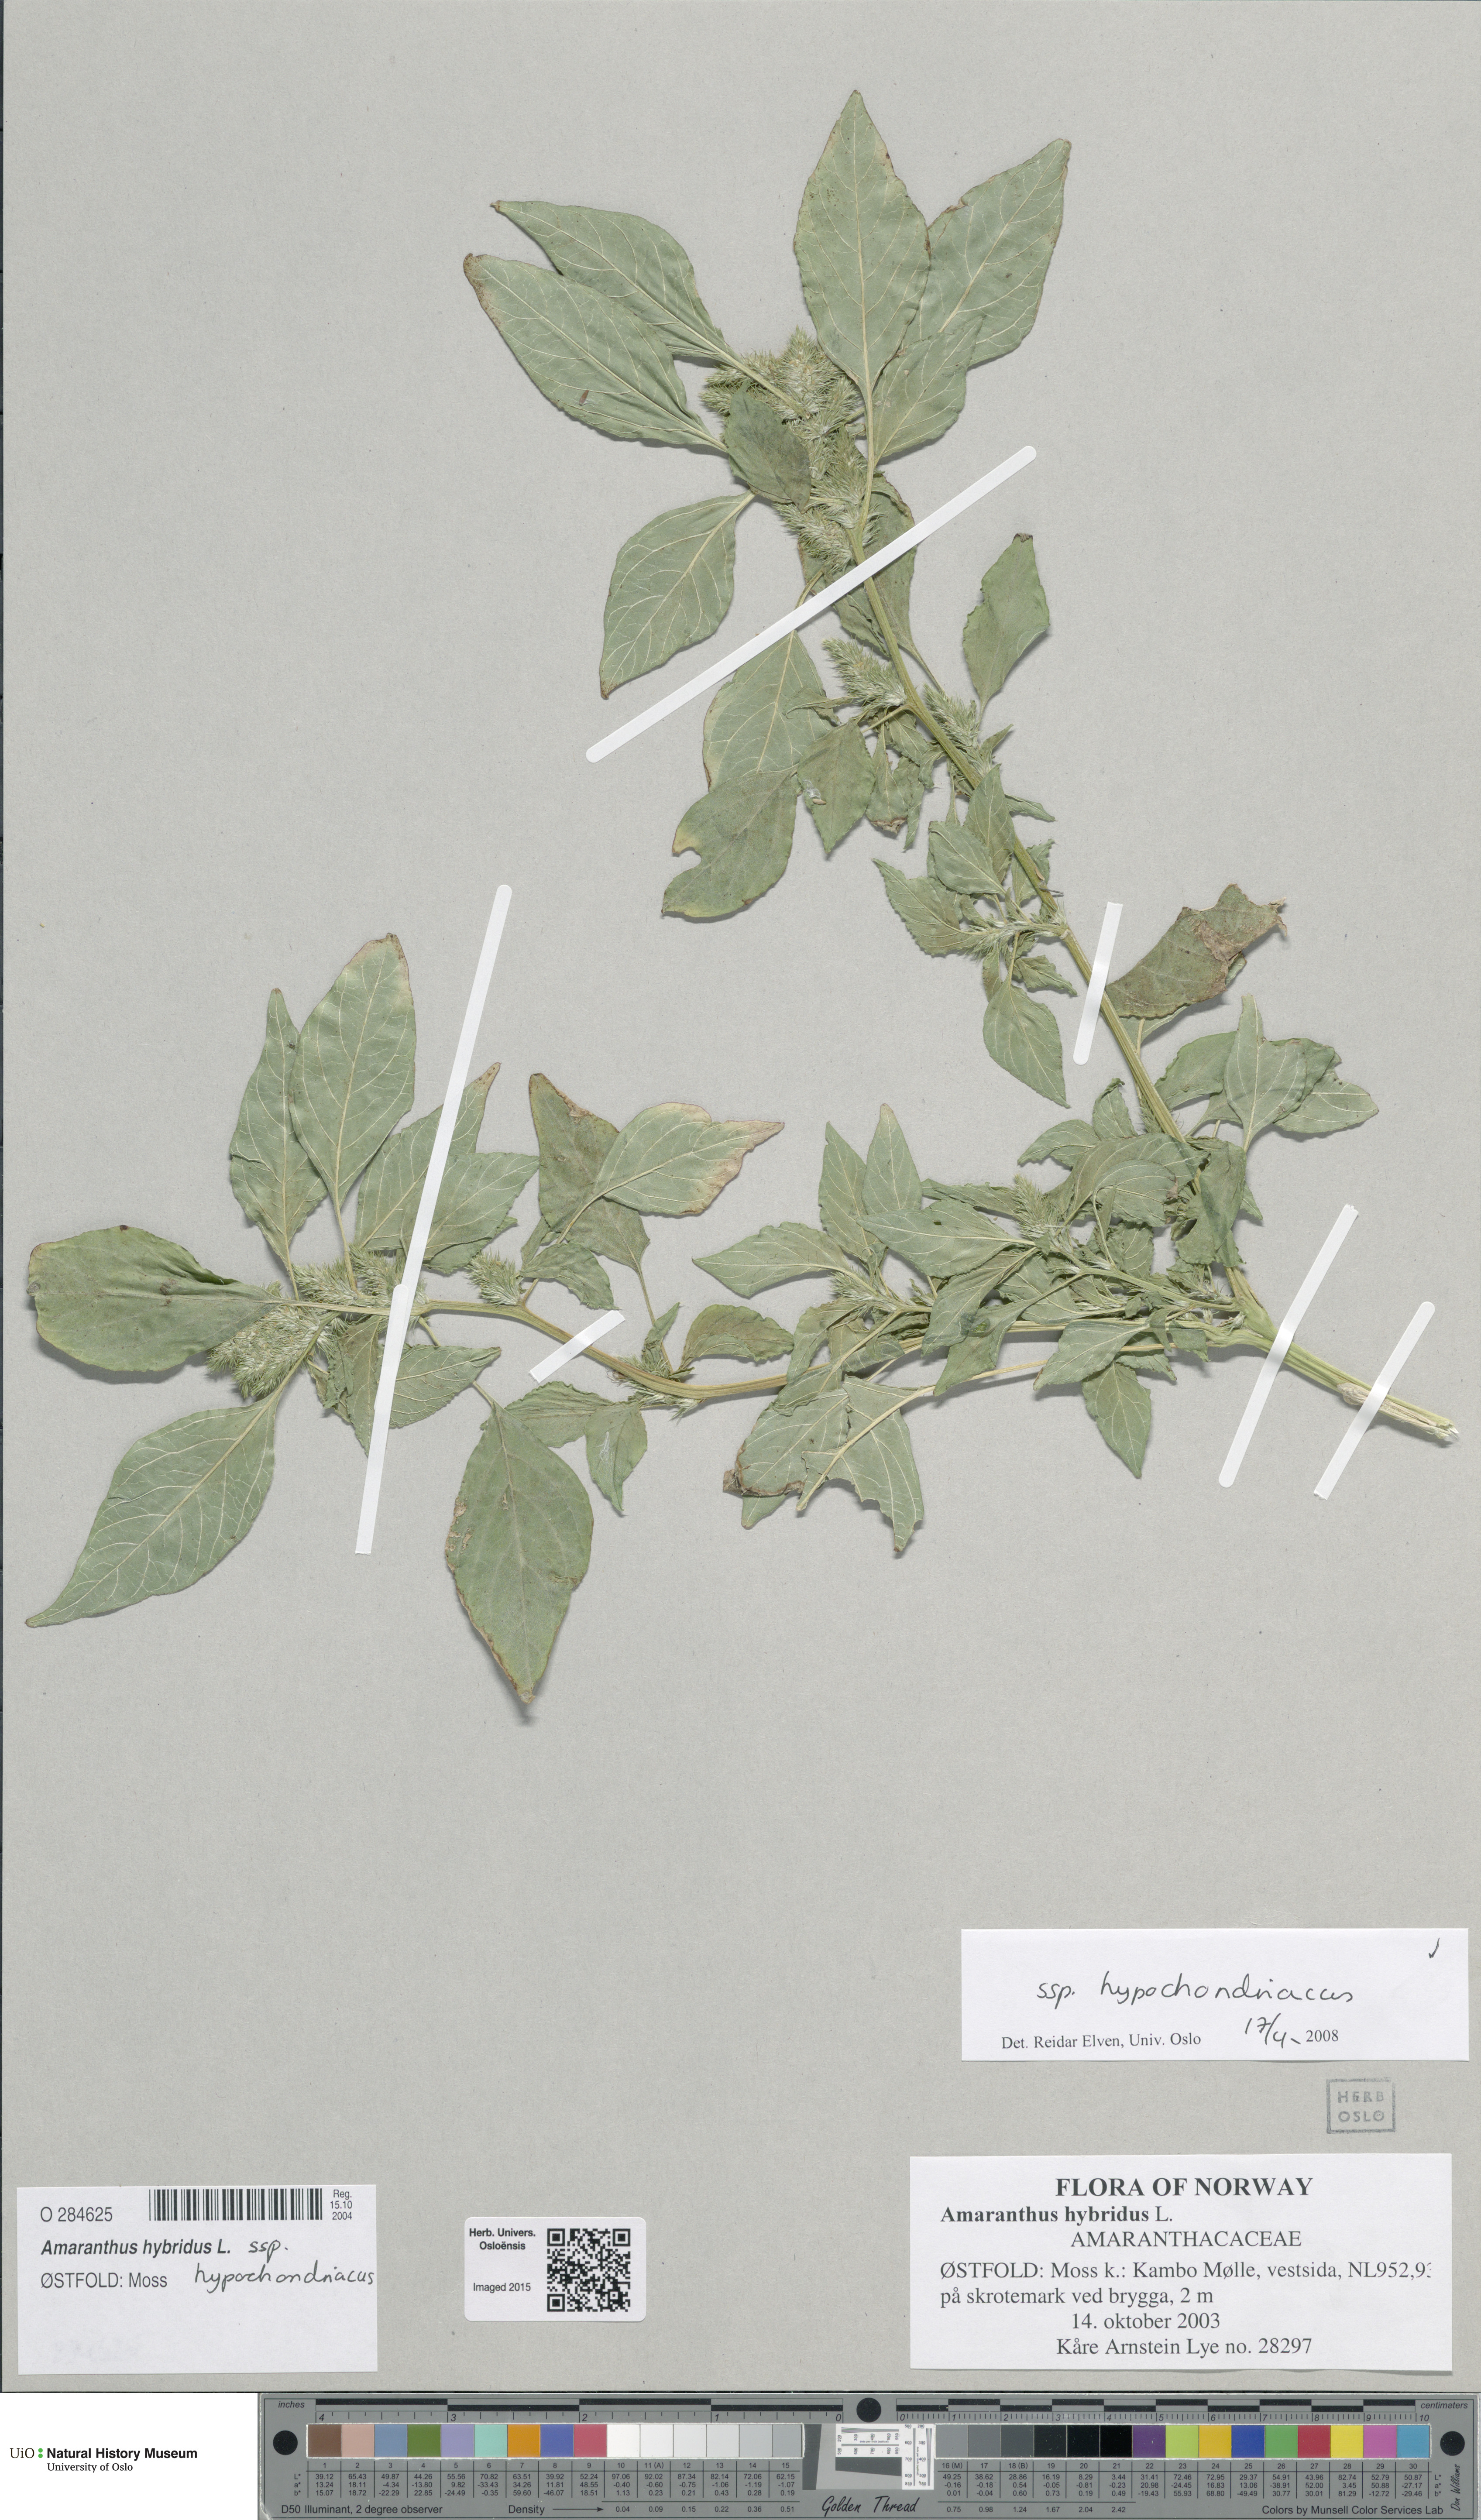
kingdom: Plantae
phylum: Tracheophyta
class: Magnoliopsida
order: Caryophyllales
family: Amaranthaceae
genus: Amaranthus
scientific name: Amaranthus hypochondriacus
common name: Prince's-feather
